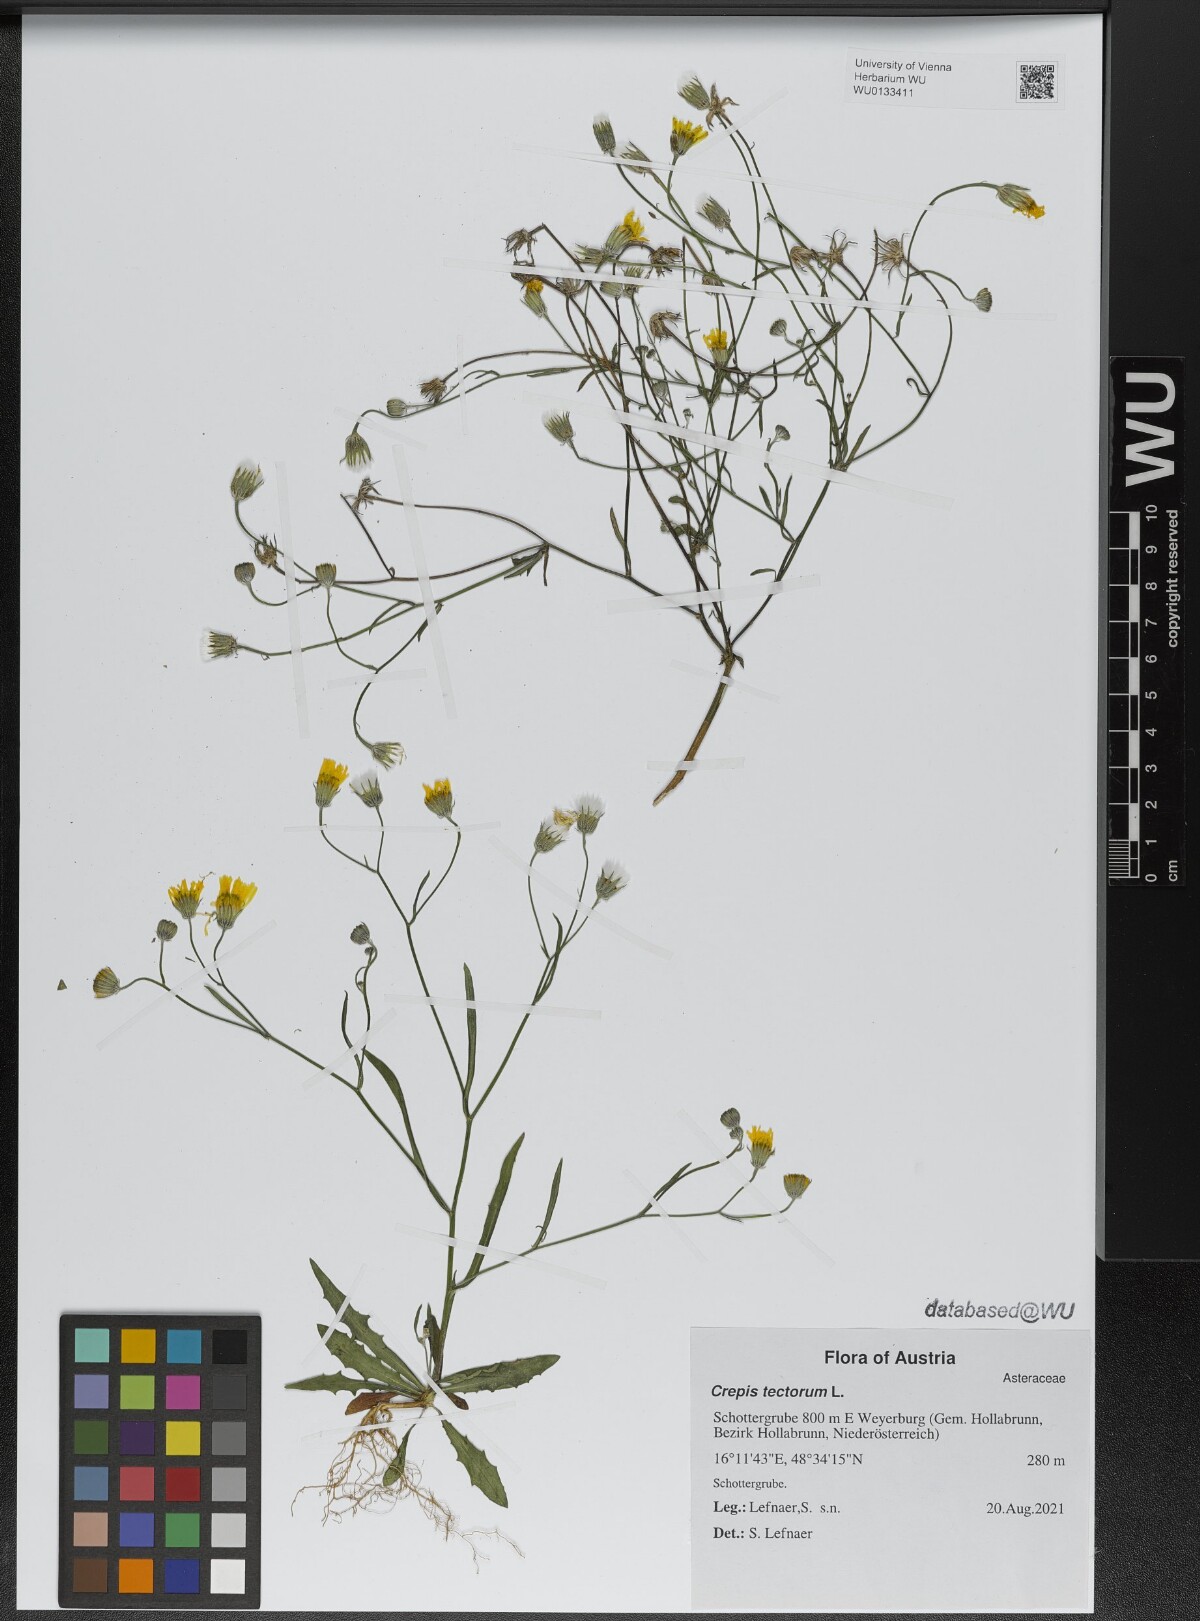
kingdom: Plantae
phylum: Tracheophyta
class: Magnoliopsida
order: Asterales
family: Asteraceae
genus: Crepis
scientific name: Crepis tectorum
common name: Narrow-leaved hawk's-beard
